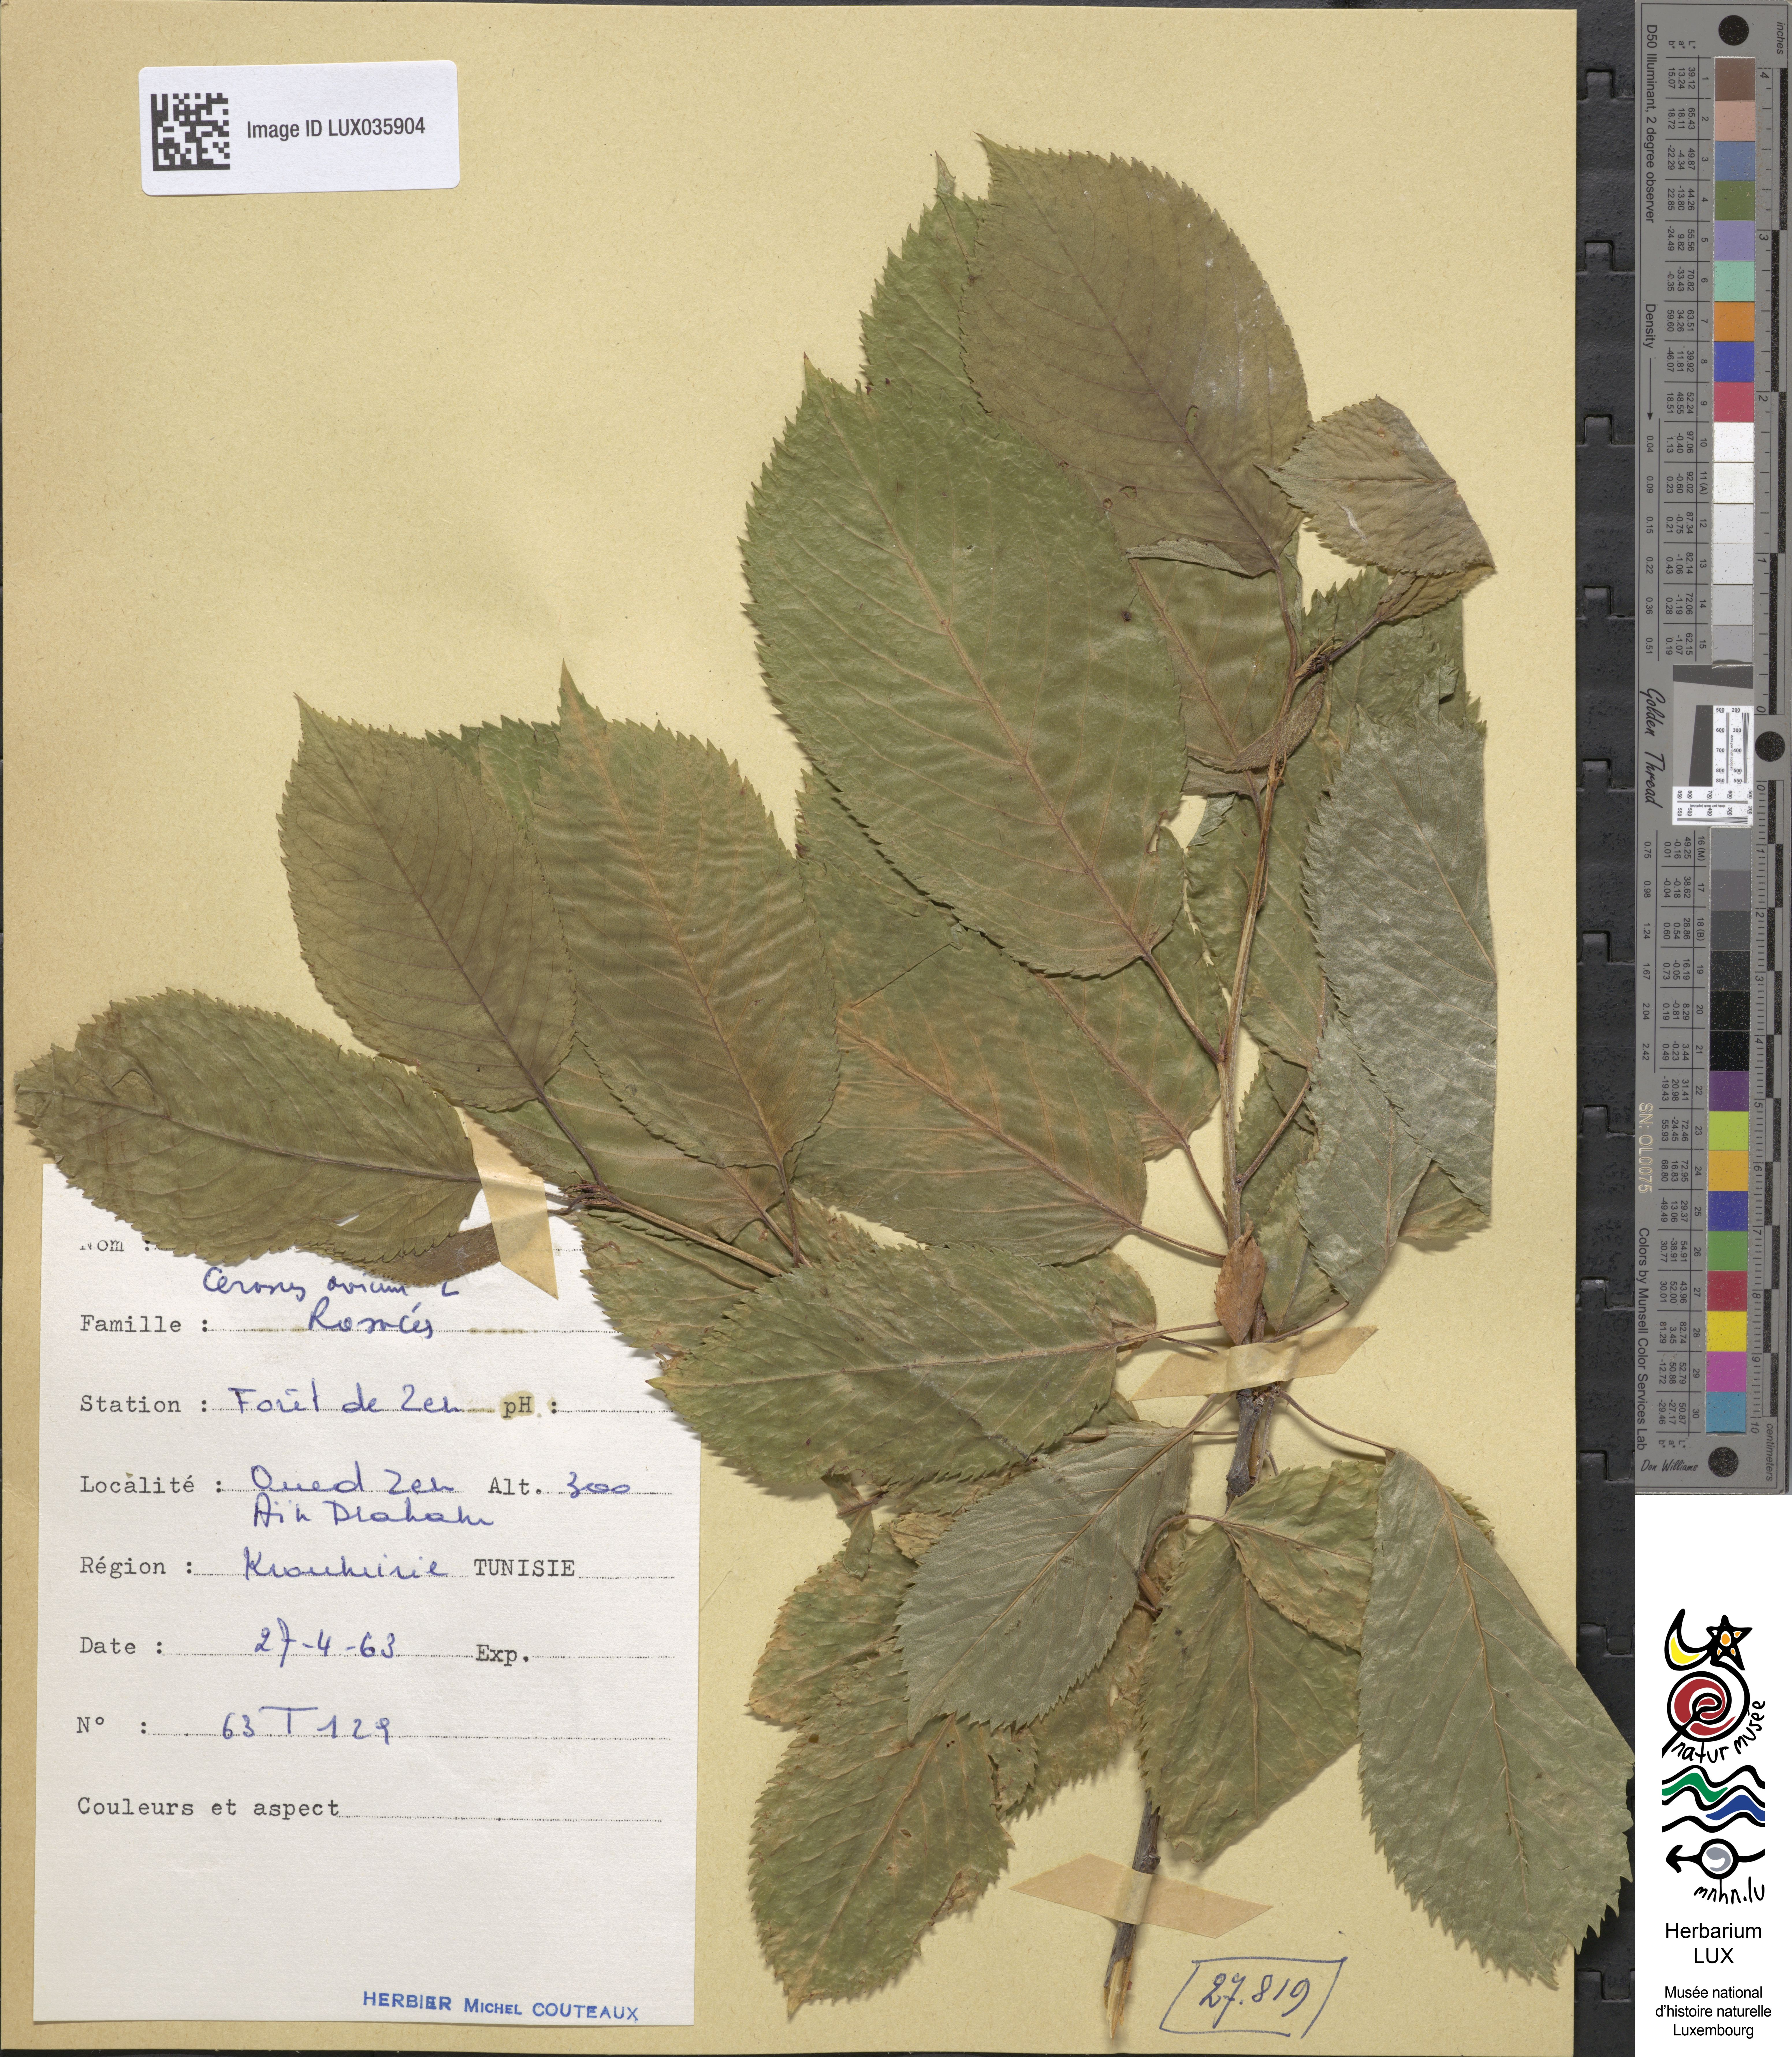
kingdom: Plantae
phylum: Tracheophyta
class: Magnoliopsida
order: Rosales
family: Rosaceae
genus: Prunus
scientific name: Prunus avium
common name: Sweet cherry
